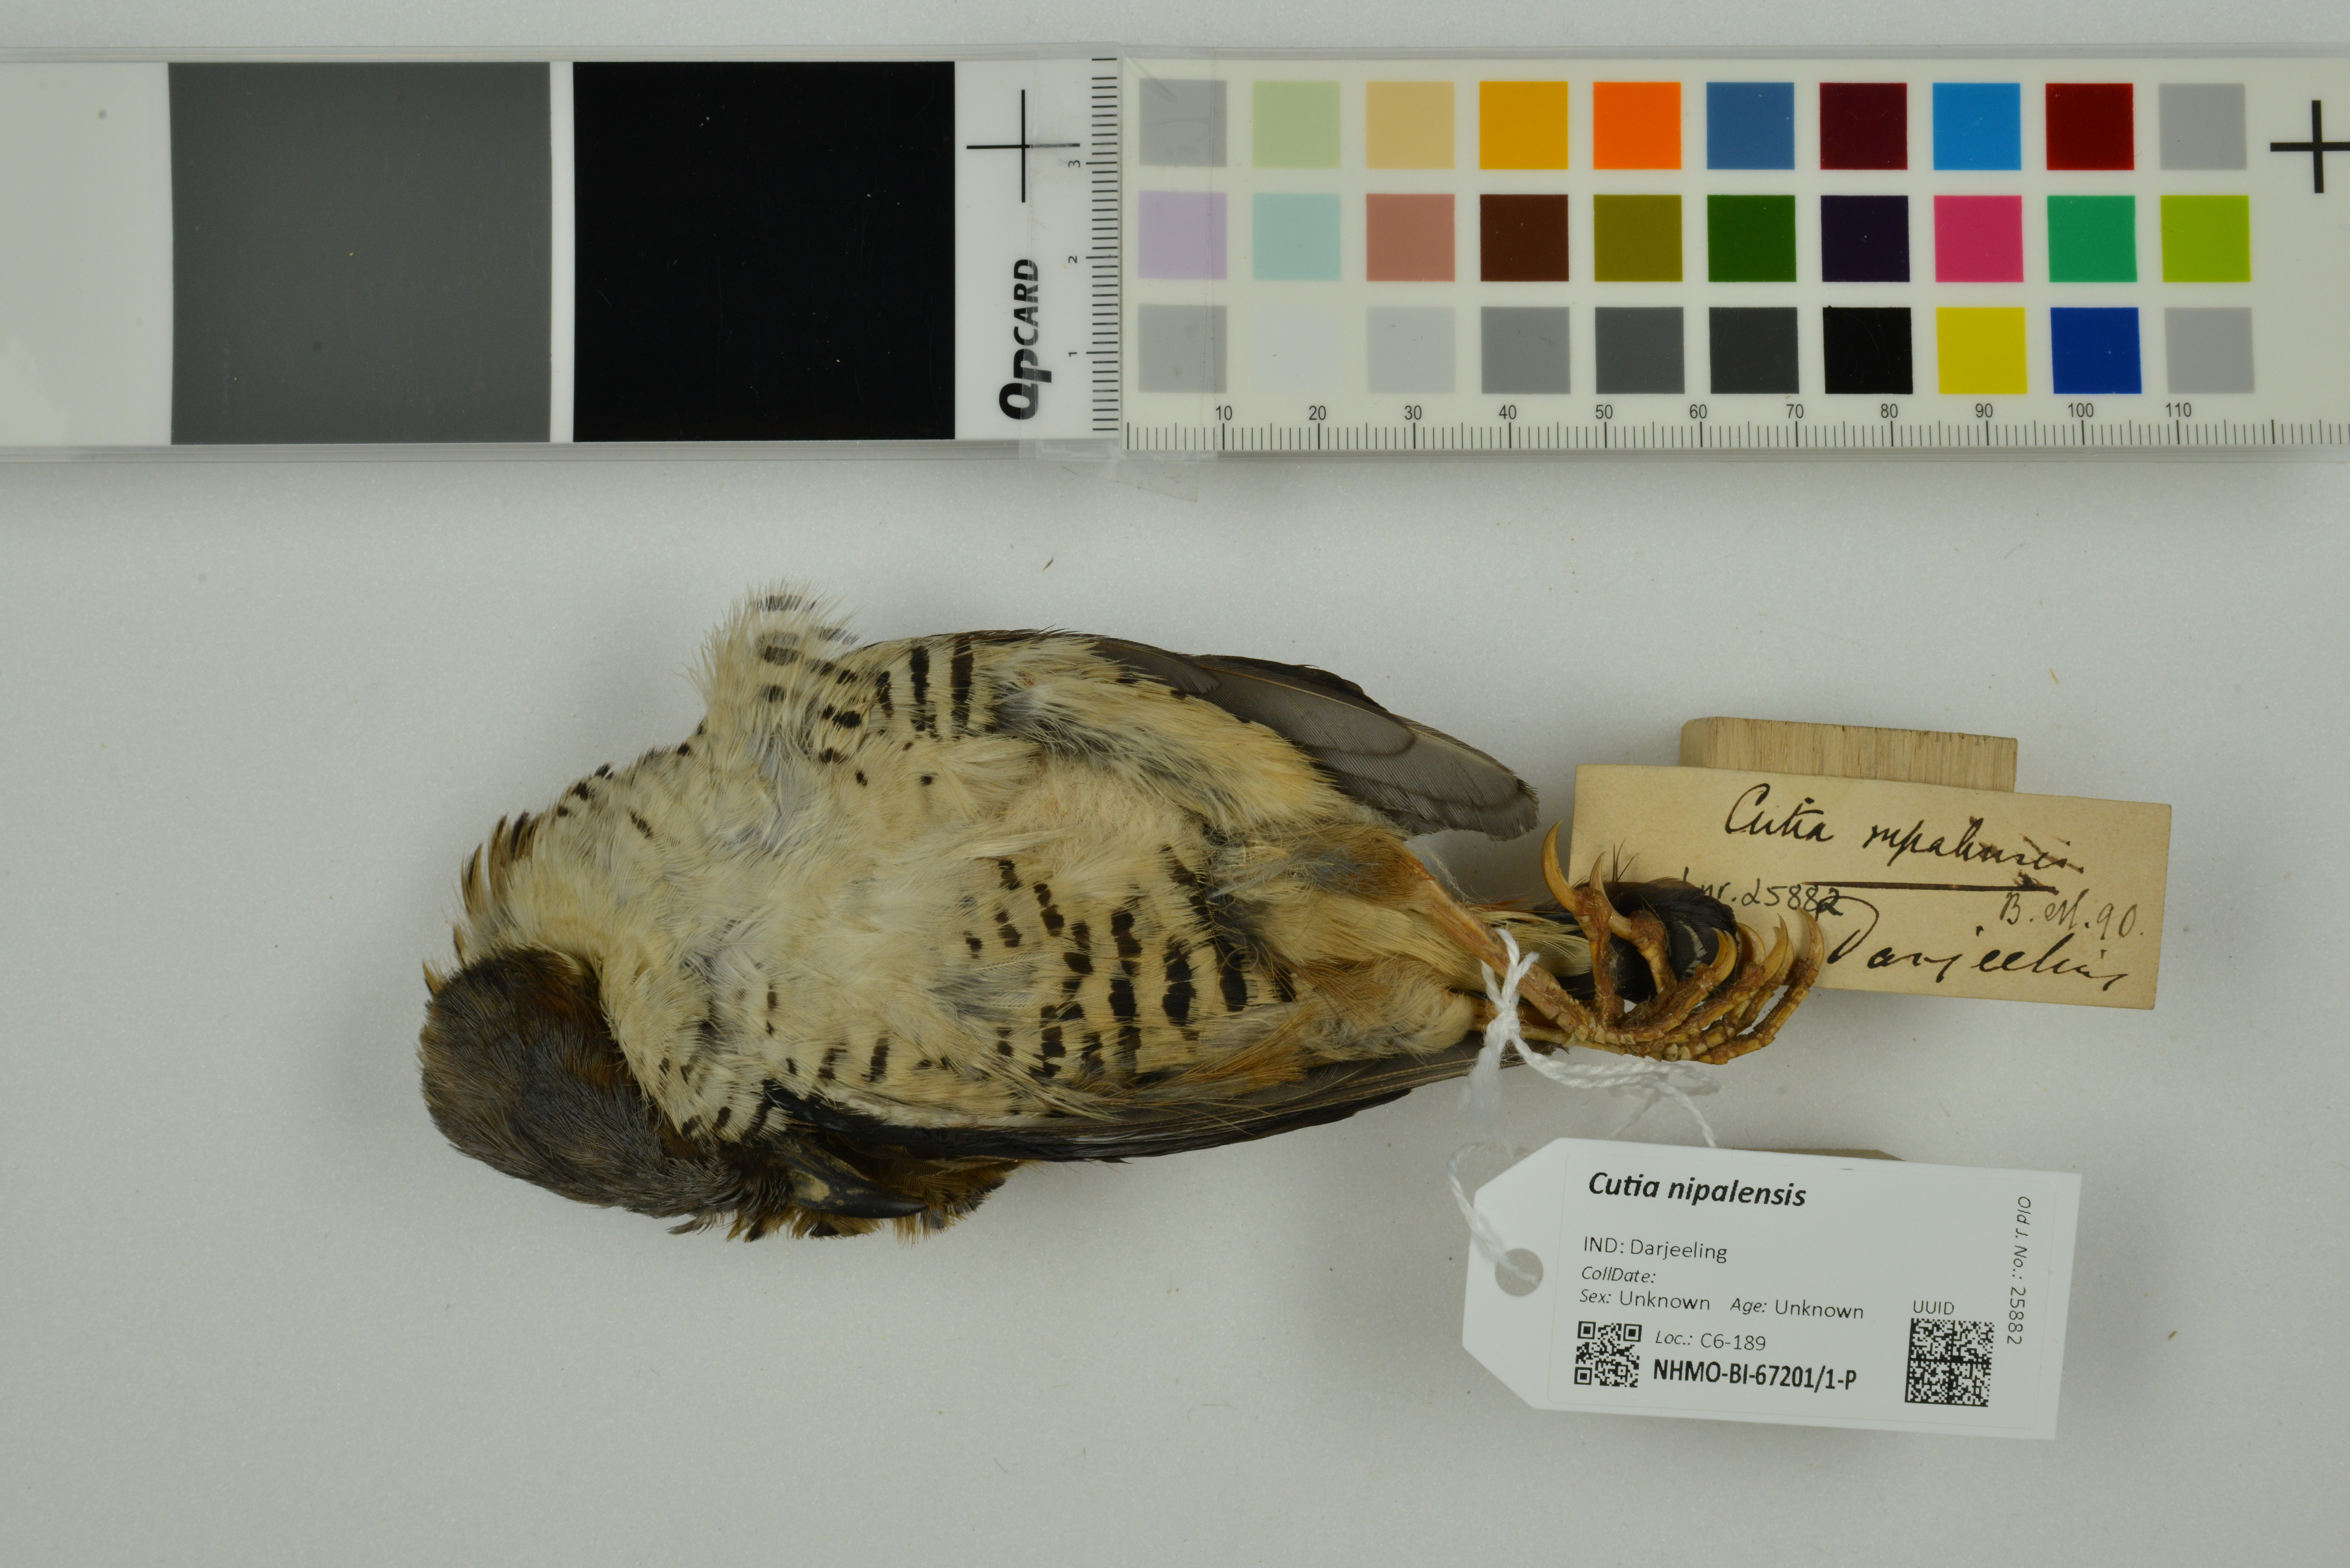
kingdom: Animalia
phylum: Chordata
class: Aves
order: Passeriformes
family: Leiothrichidae
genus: Cutia
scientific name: Cutia nipalensis
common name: Himalayan cutia
